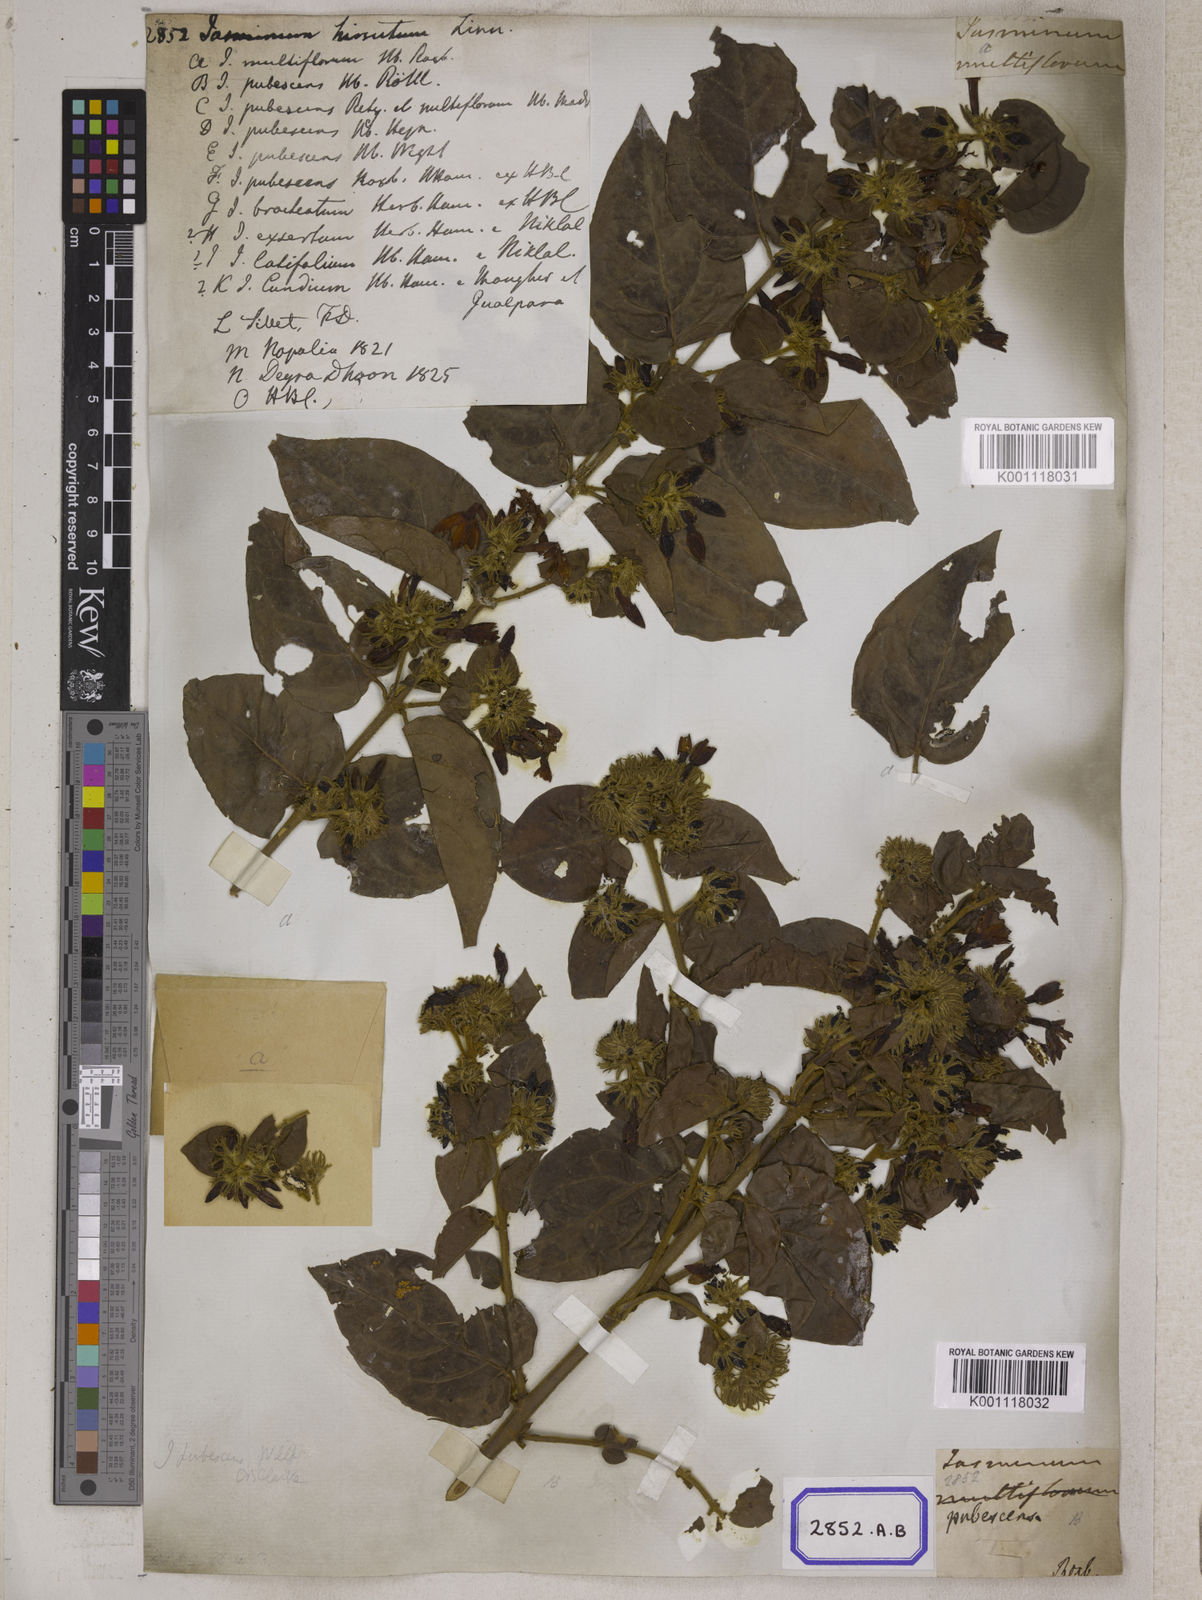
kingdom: Plantae
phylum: Tracheophyta
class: Magnoliopsida
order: Gentianales
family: Rubiaceae
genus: Guettarda
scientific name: Guettarda speciosa
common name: Sea randa
